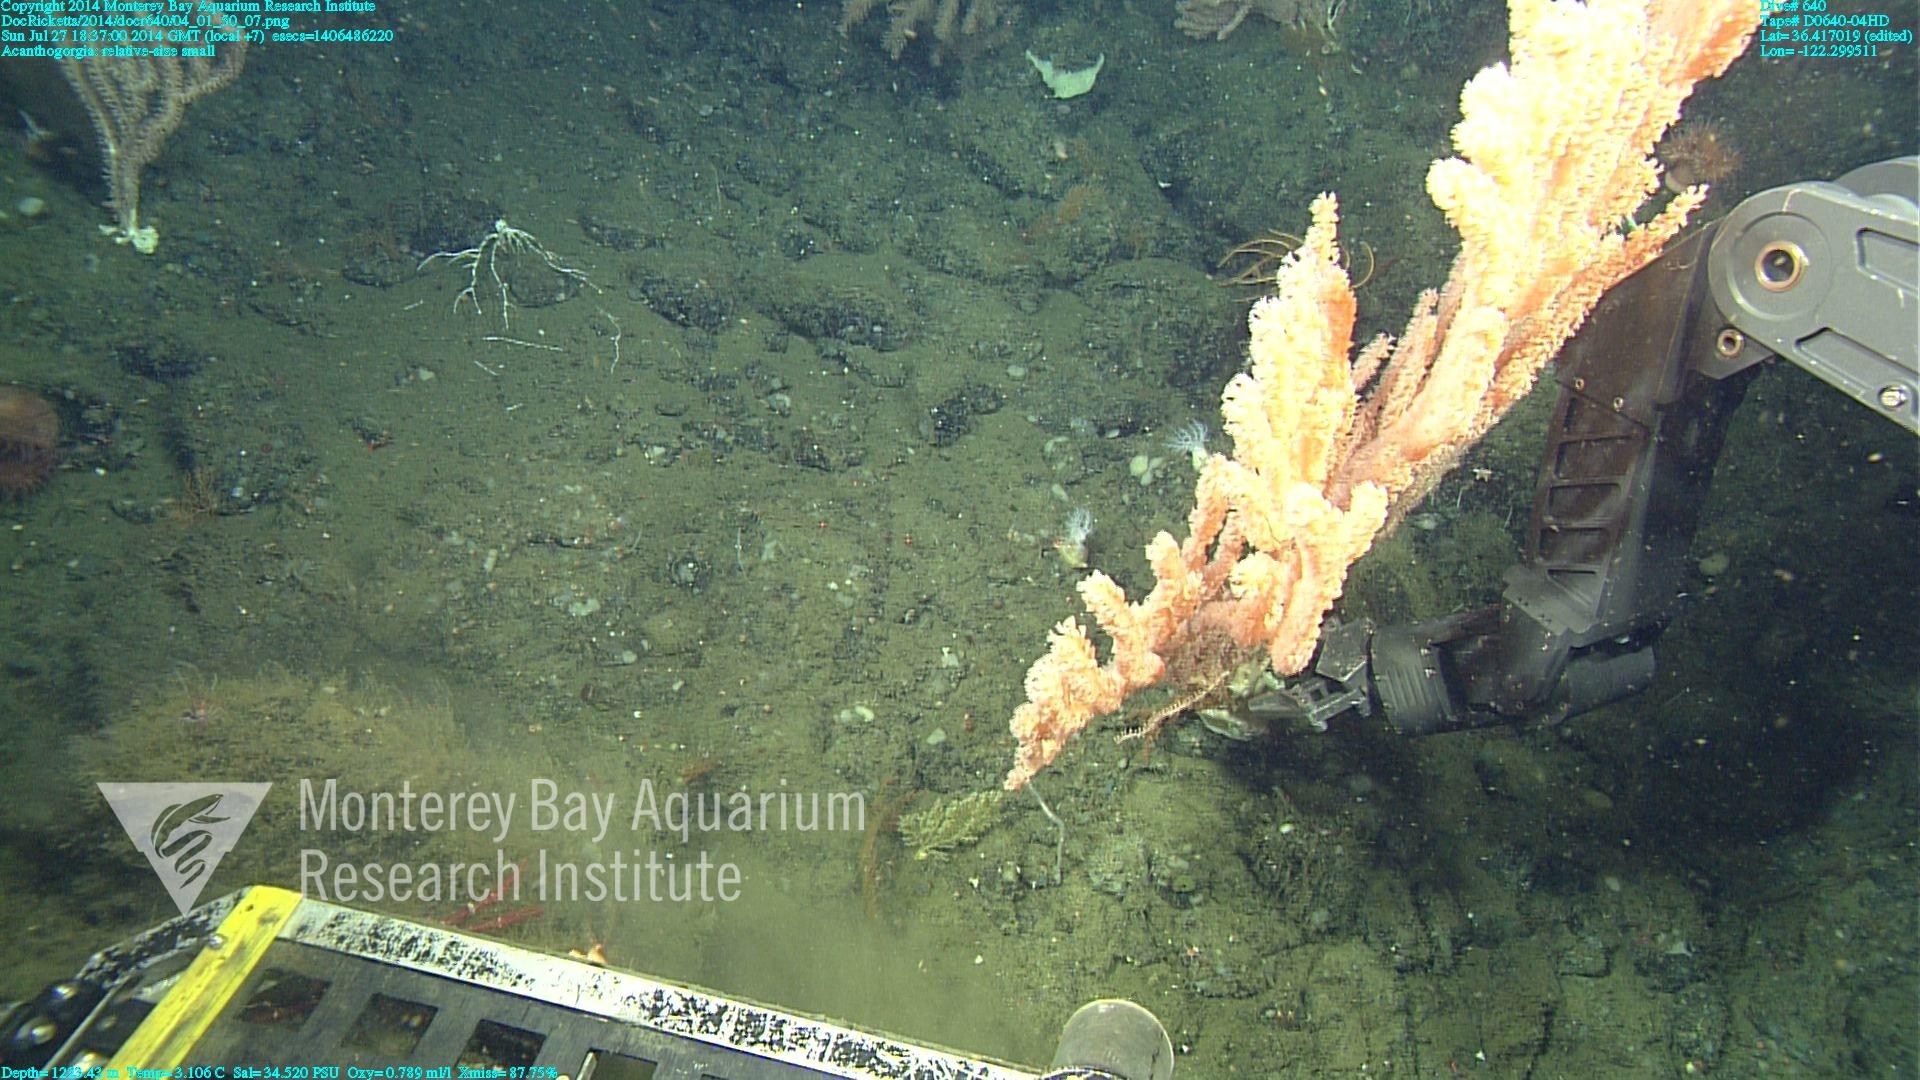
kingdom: Animalia
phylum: Cnidaria
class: Anthozoa
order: Malacalcyonacea
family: Paramuriceidae
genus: Acanthogorgia
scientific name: Acanthogorgia
